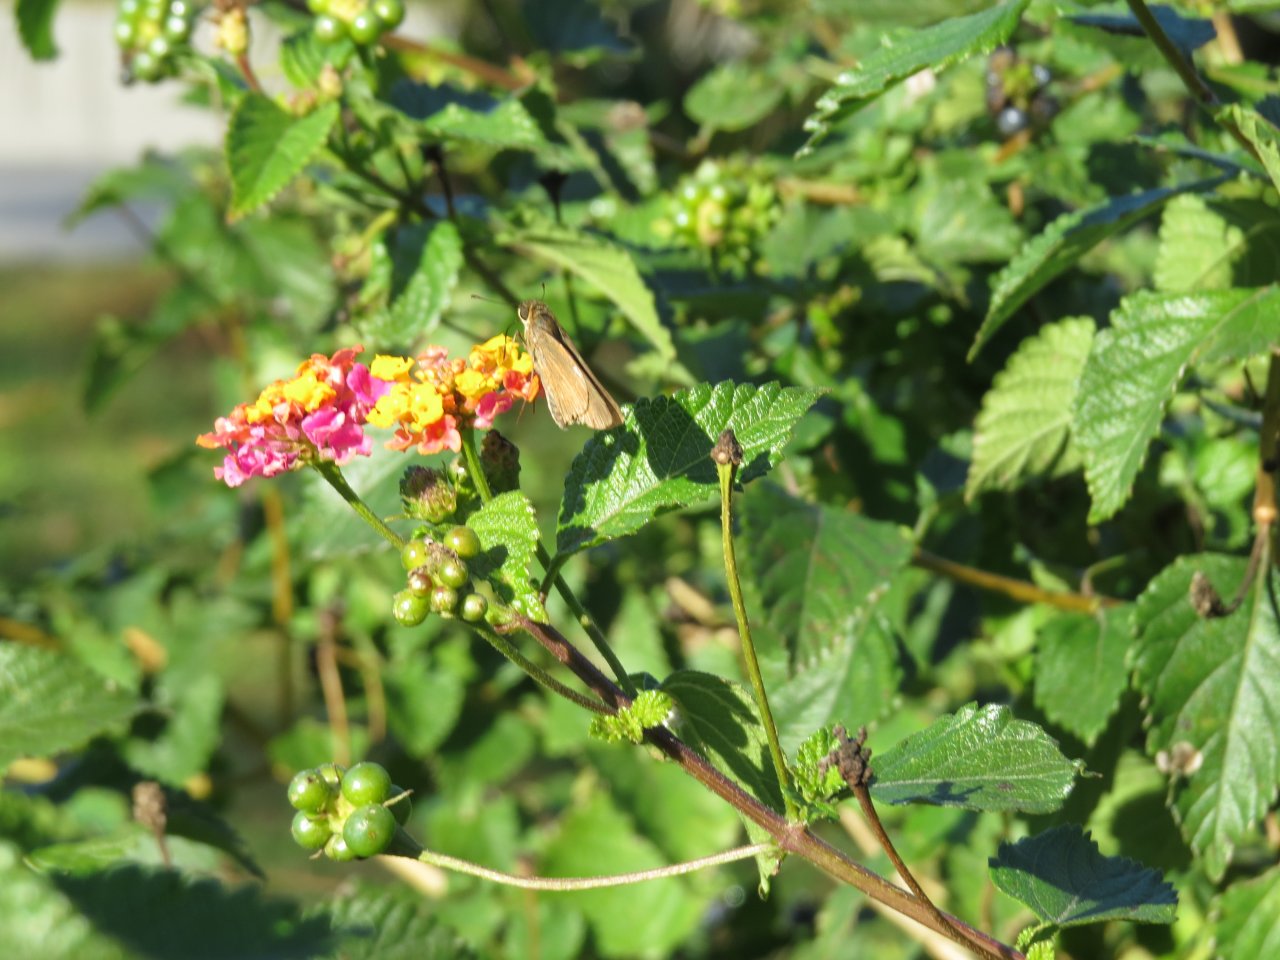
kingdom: Animalia
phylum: Arthropoda
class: Insecta
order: Lepidoptera
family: Hesperiidae
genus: Panoquina
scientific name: Panoquina ocola
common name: Ocola Skipper
